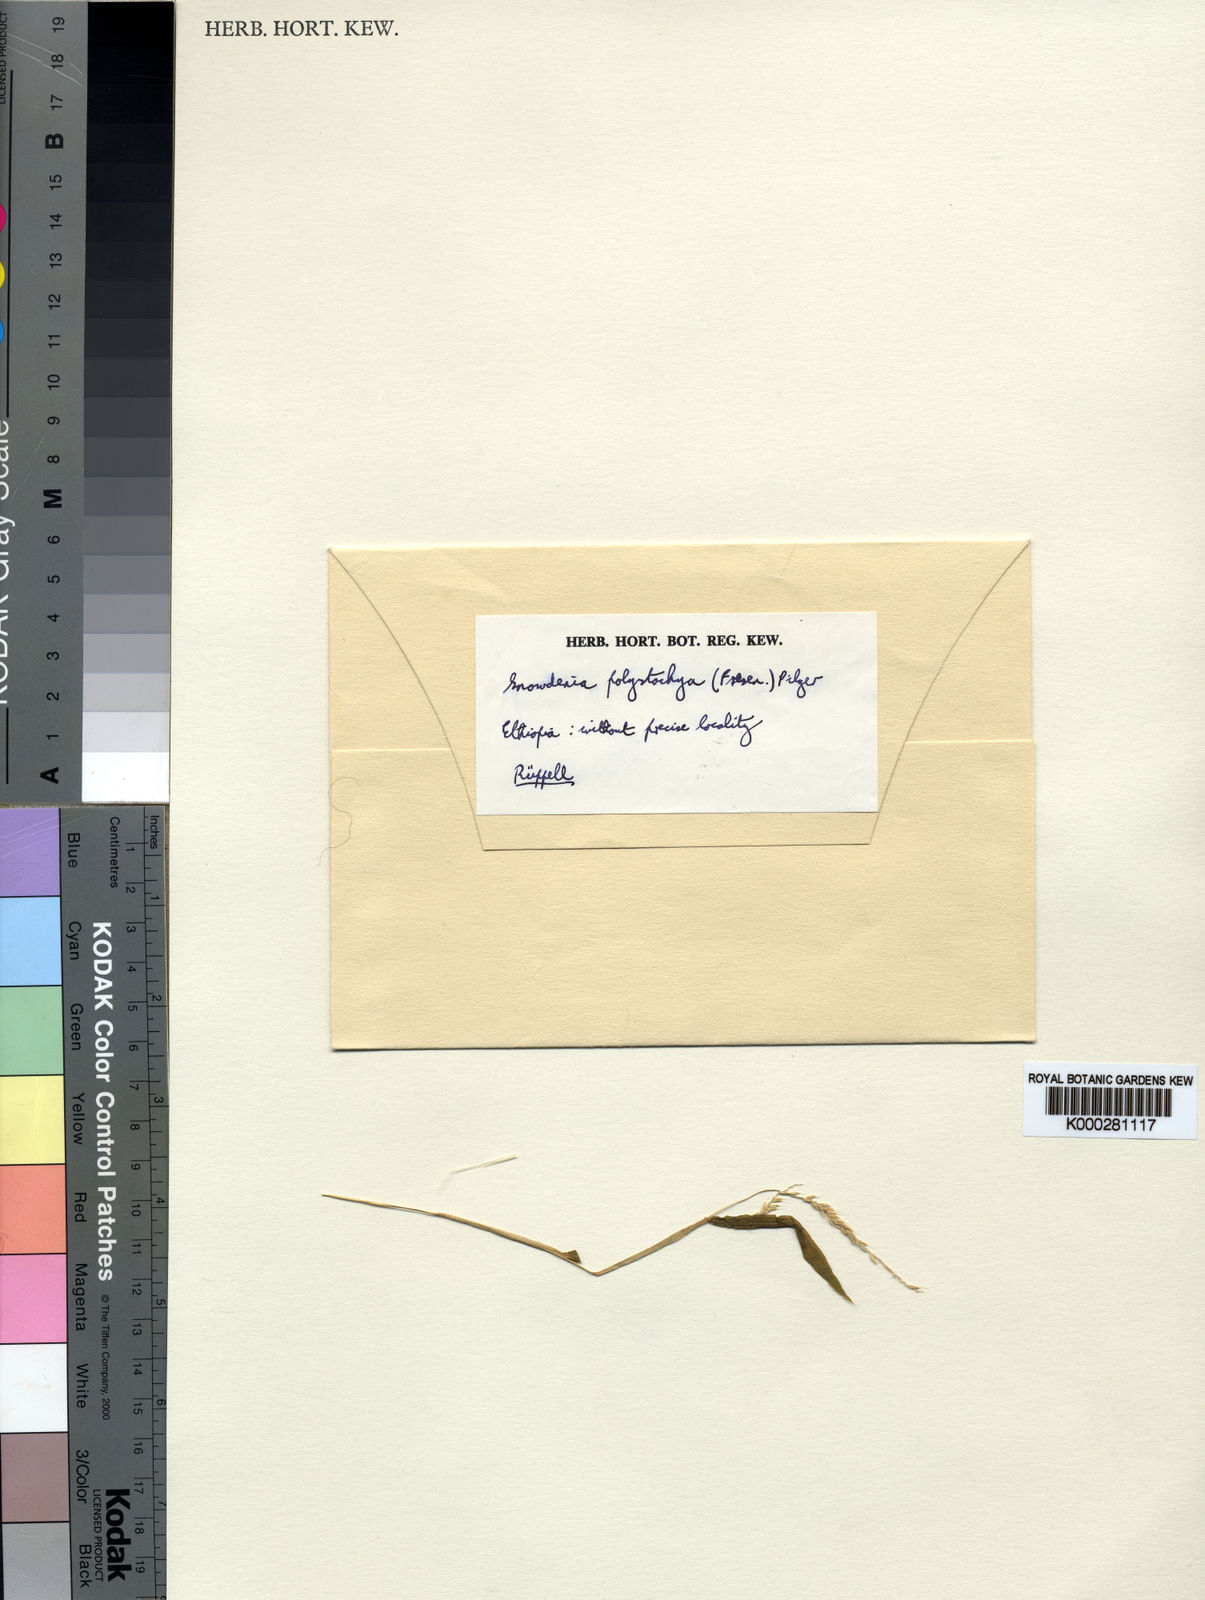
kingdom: Plantae
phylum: Tracheophyta
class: Liliopsida
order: Poales
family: Poaceae
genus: Snowdenia
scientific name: Snowdenia polystachya
